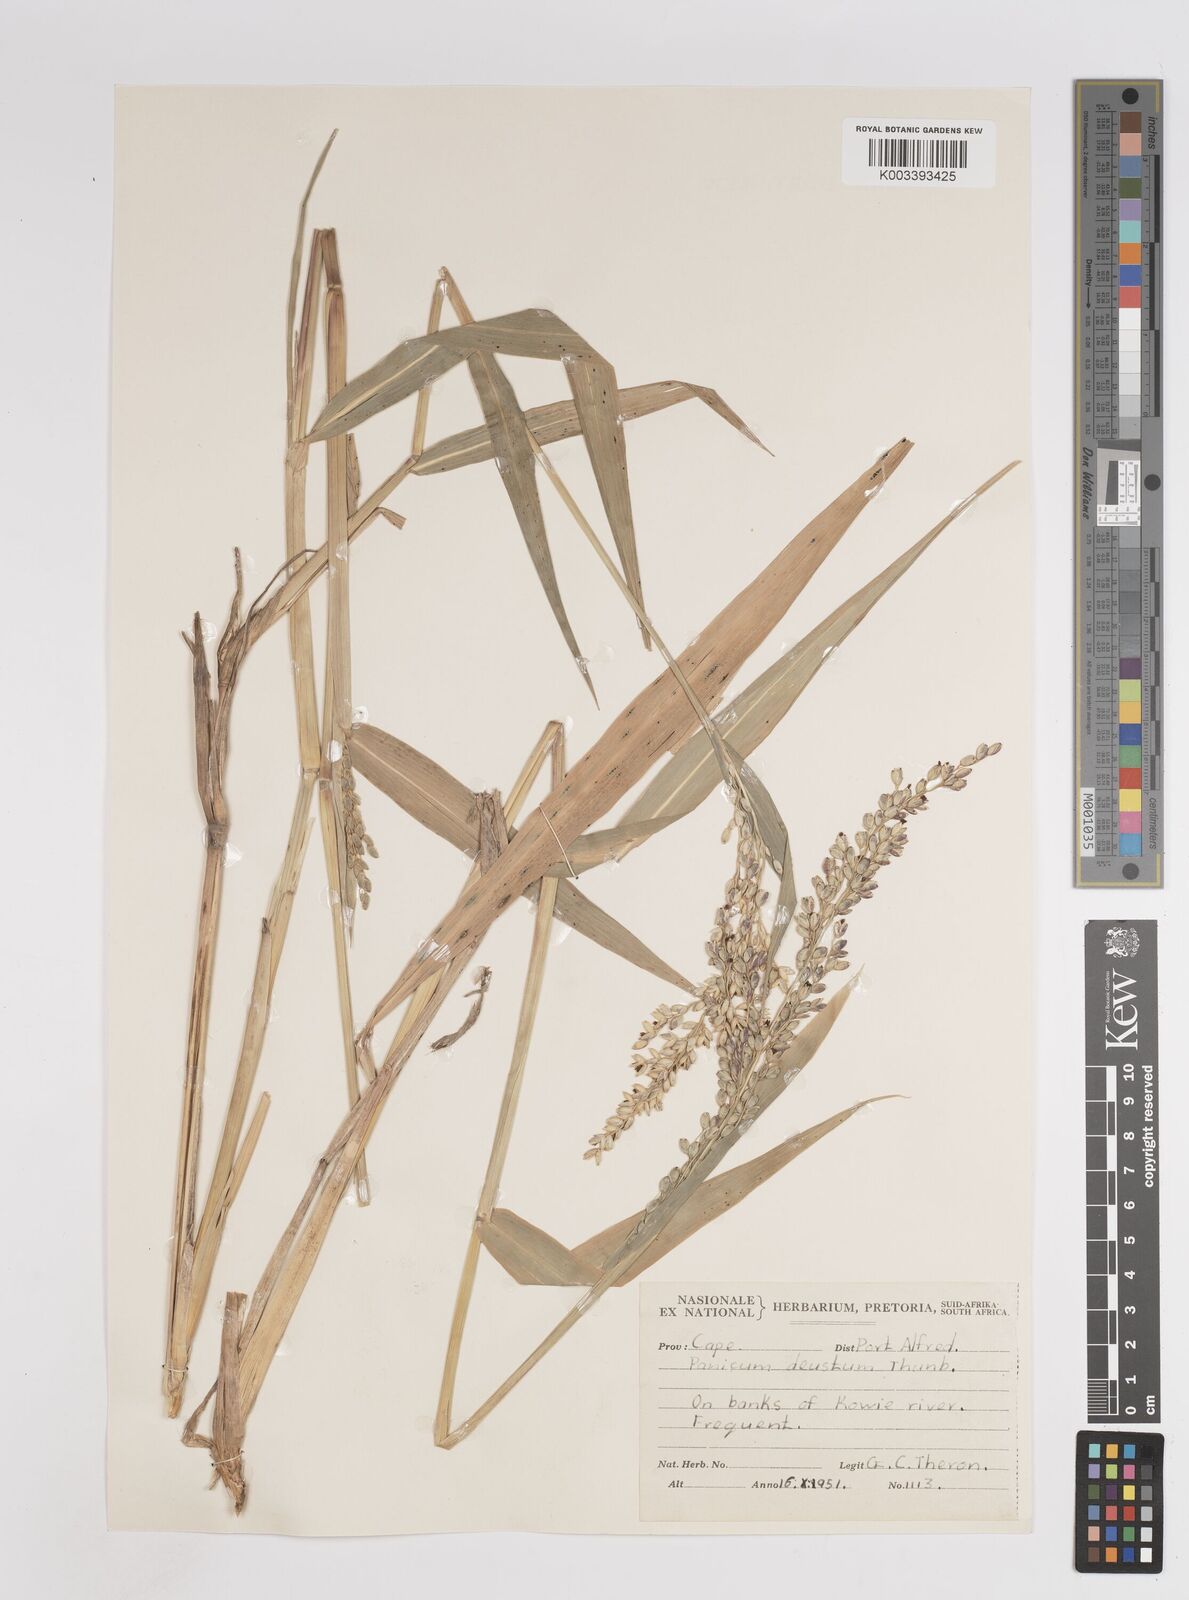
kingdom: Plantae
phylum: Tracheophyta
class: Liliopsida
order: Poales
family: Poaceae
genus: Panicum
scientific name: Panicum deustum
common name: Reed panicum
